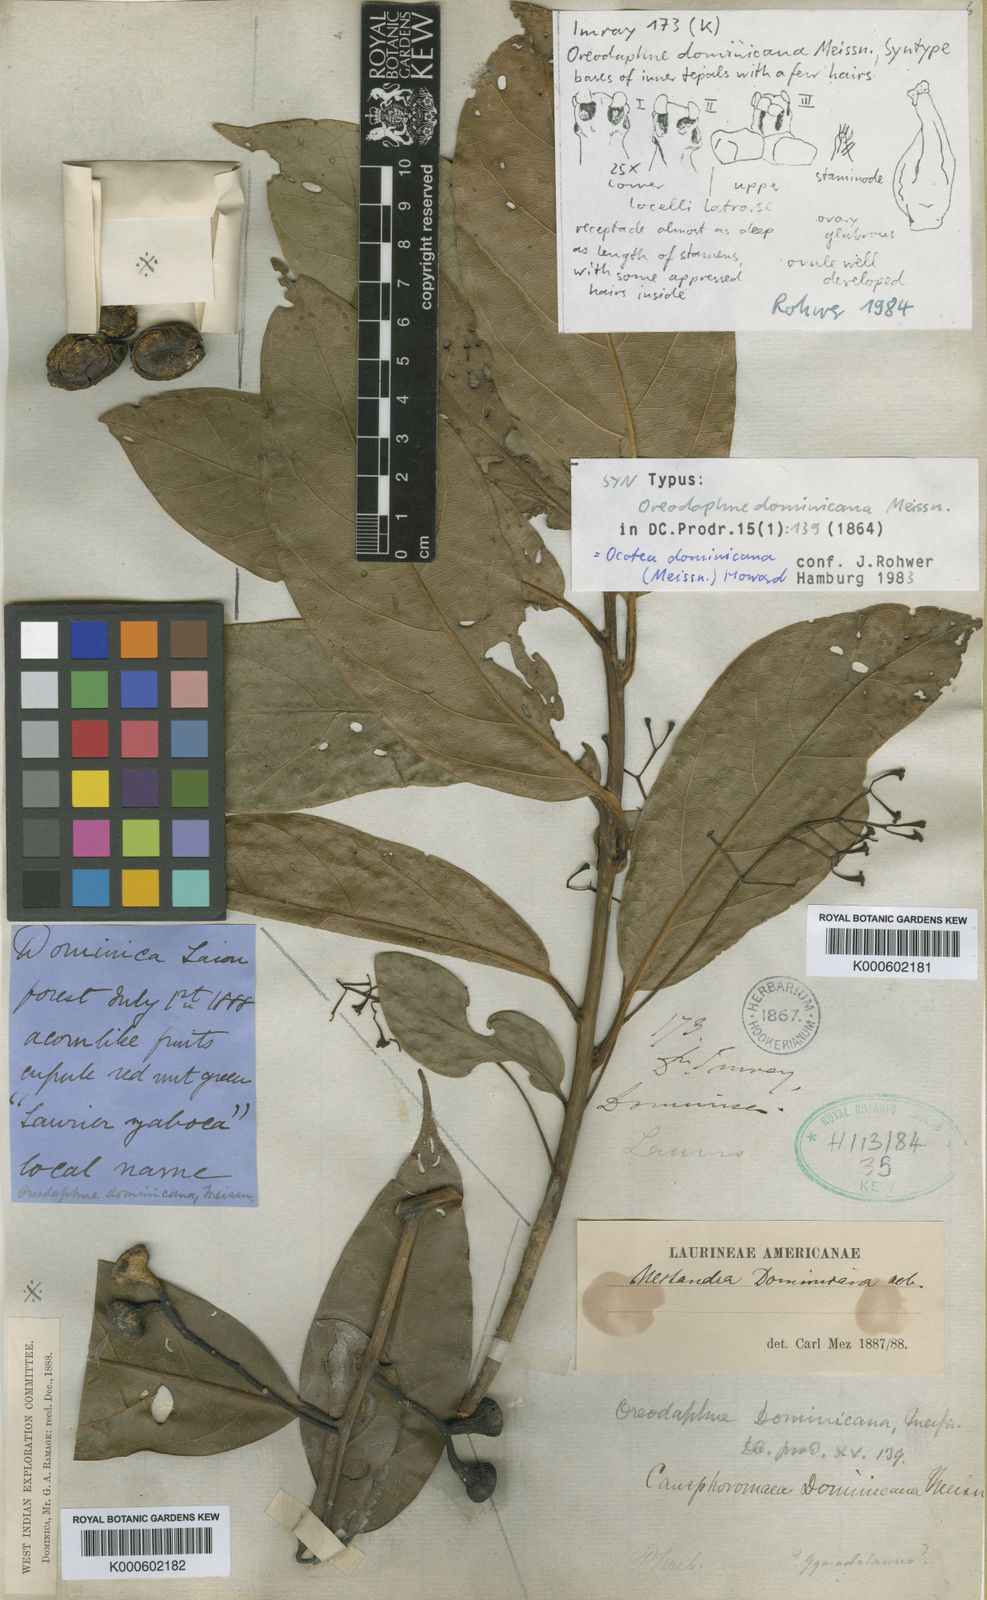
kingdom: Plantae
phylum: Tracheophyta
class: Magnoliopsida
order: Laurales
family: Lauraceae
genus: Ocotea
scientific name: Ocotea dominicana
